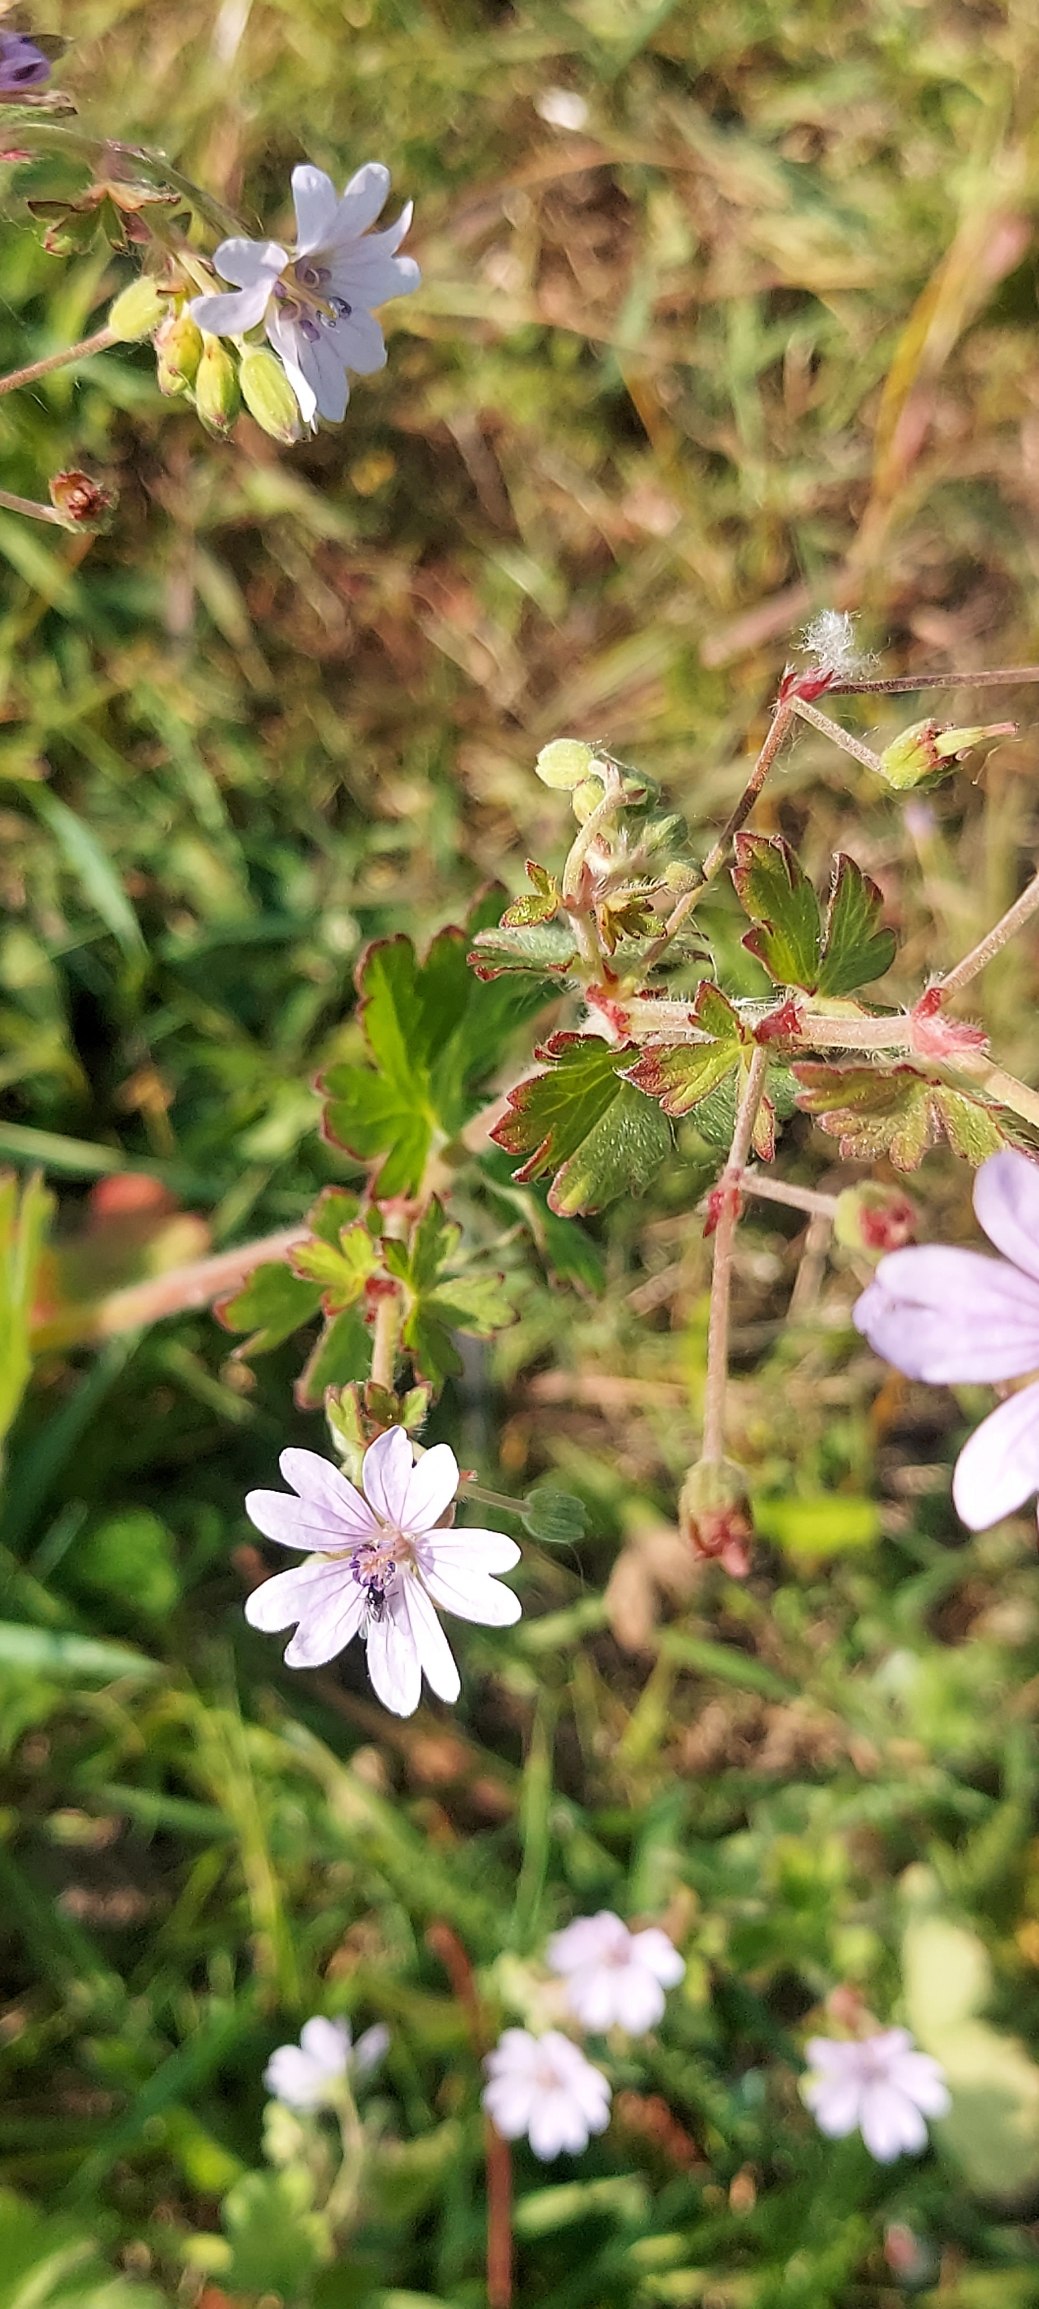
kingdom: Plantae
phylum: Tracheophyta
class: Magnoliopsida
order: Geraniales
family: Geraniaceae
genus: Geranium
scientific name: Geranium pyrenaicum
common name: Pyrenæisk storkenæb
